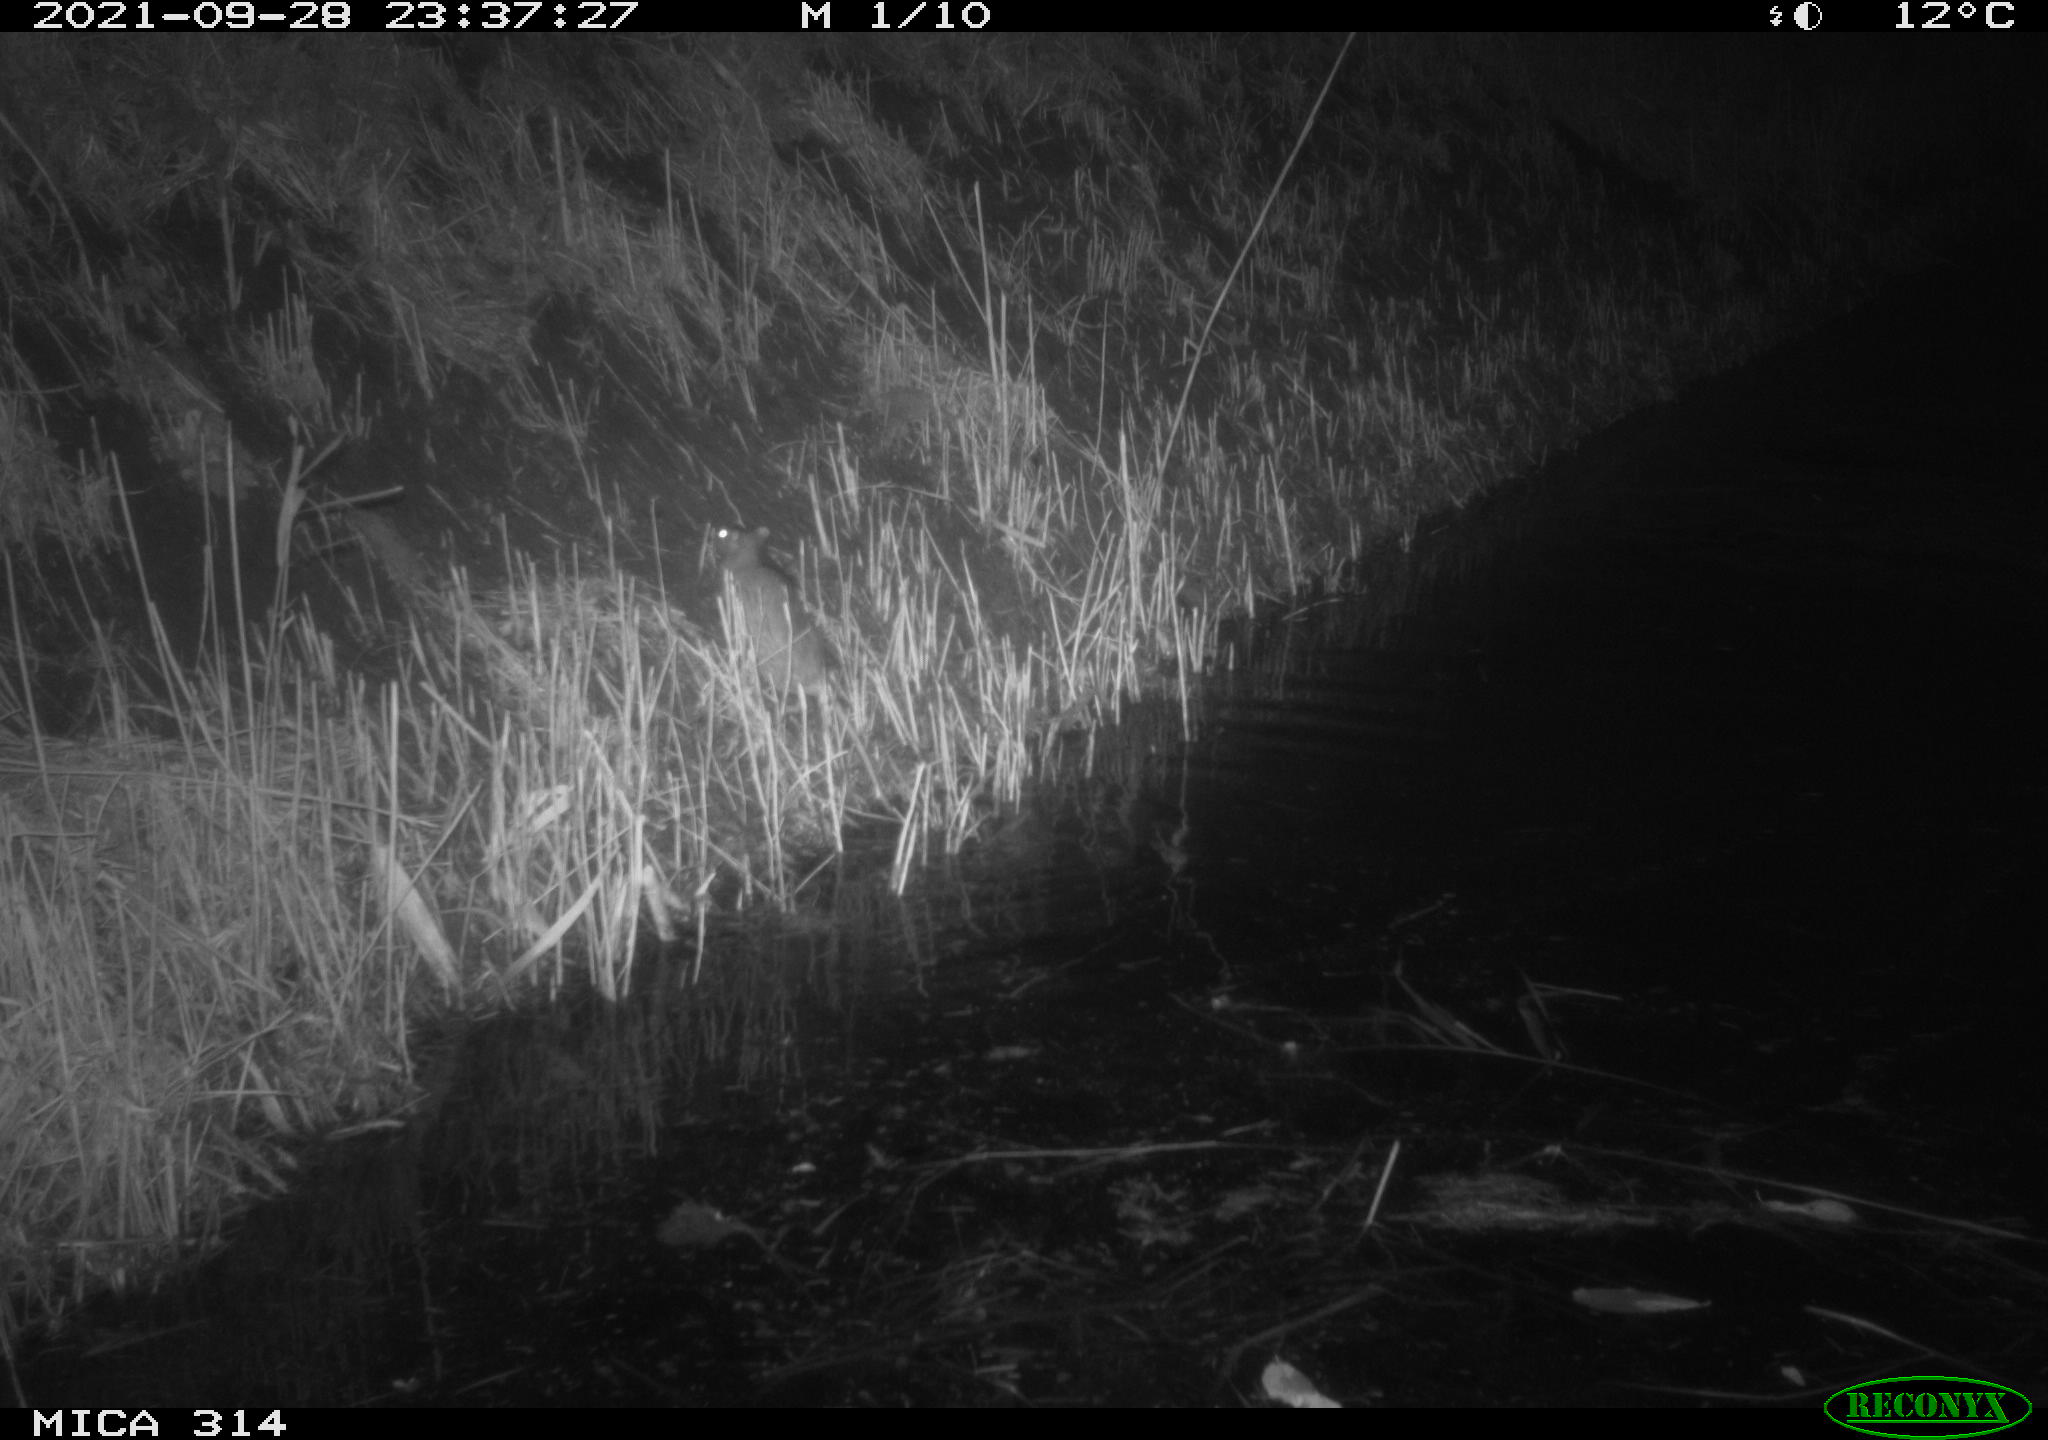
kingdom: Animalia
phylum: Chordata
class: Mammalia
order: Rodentia
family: Muridae
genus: Rattus
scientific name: Rattus norvegicus
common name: Brown rat
